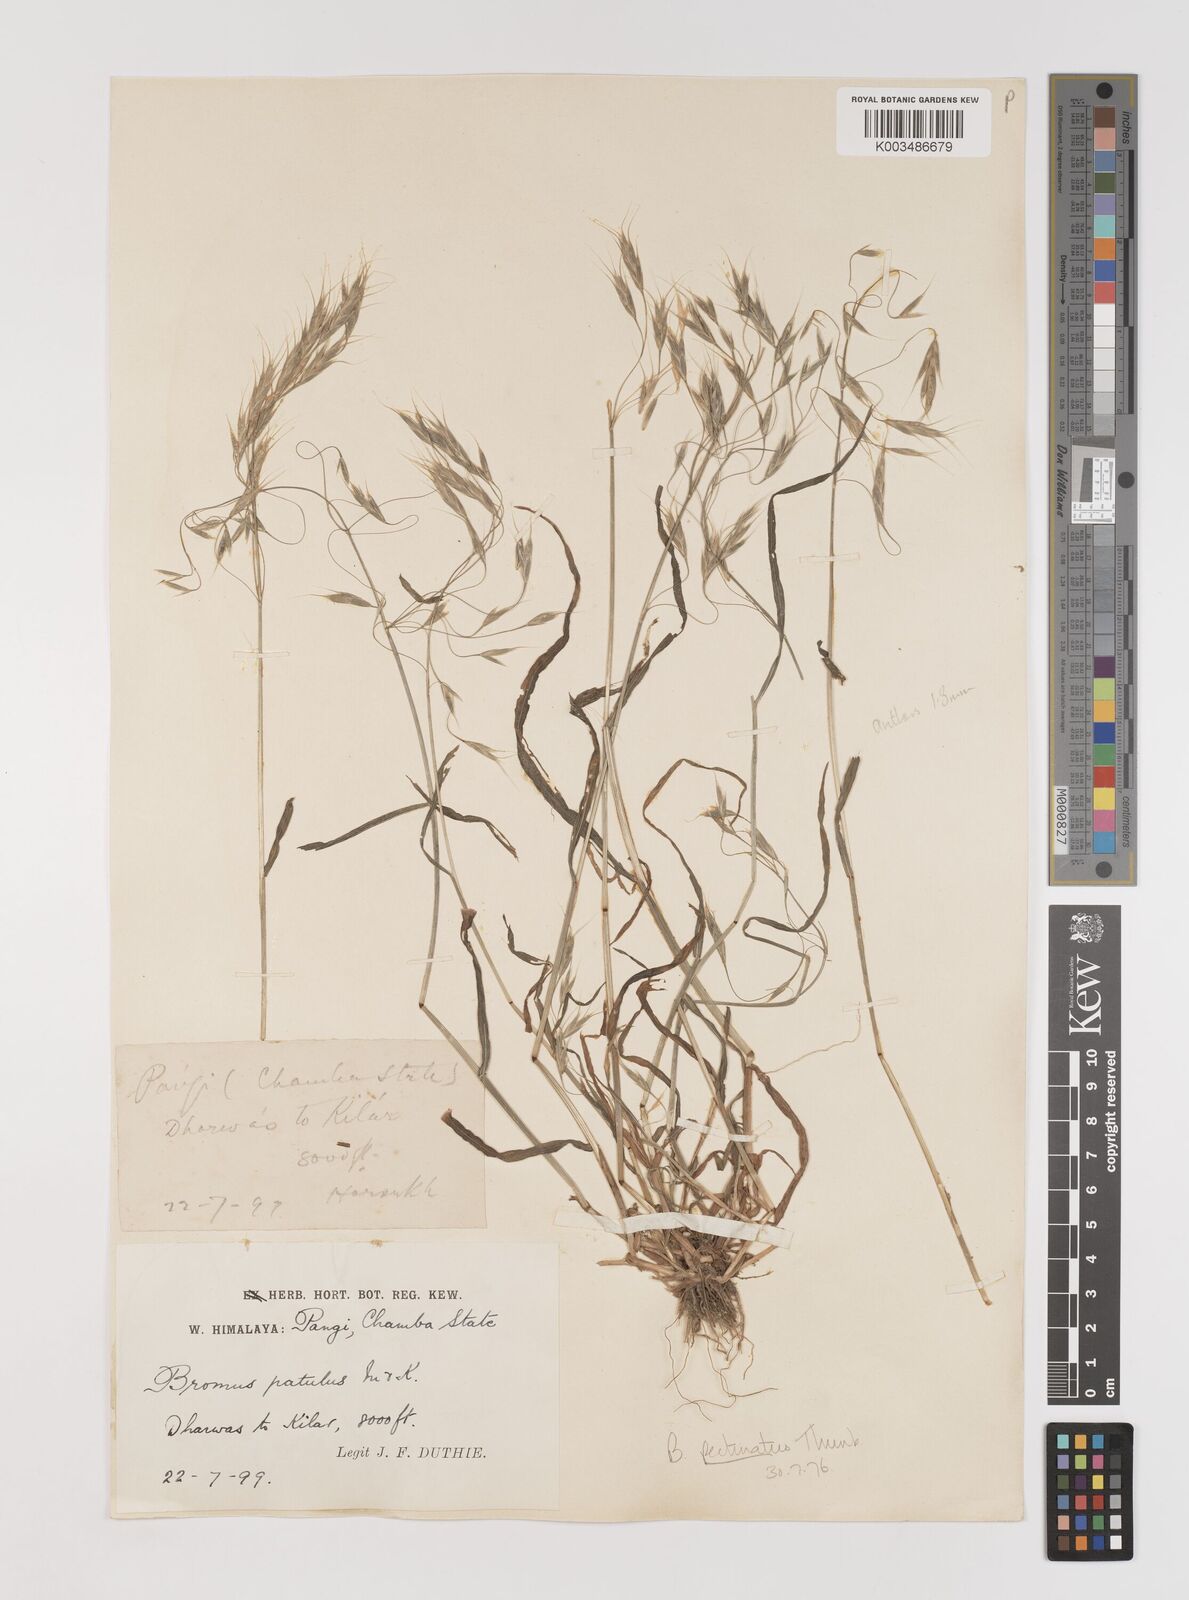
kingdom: Plantae
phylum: Tracheophyta
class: Liliopsida
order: Poales
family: Poaceae
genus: Bromus
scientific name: Bromus pectinatus
